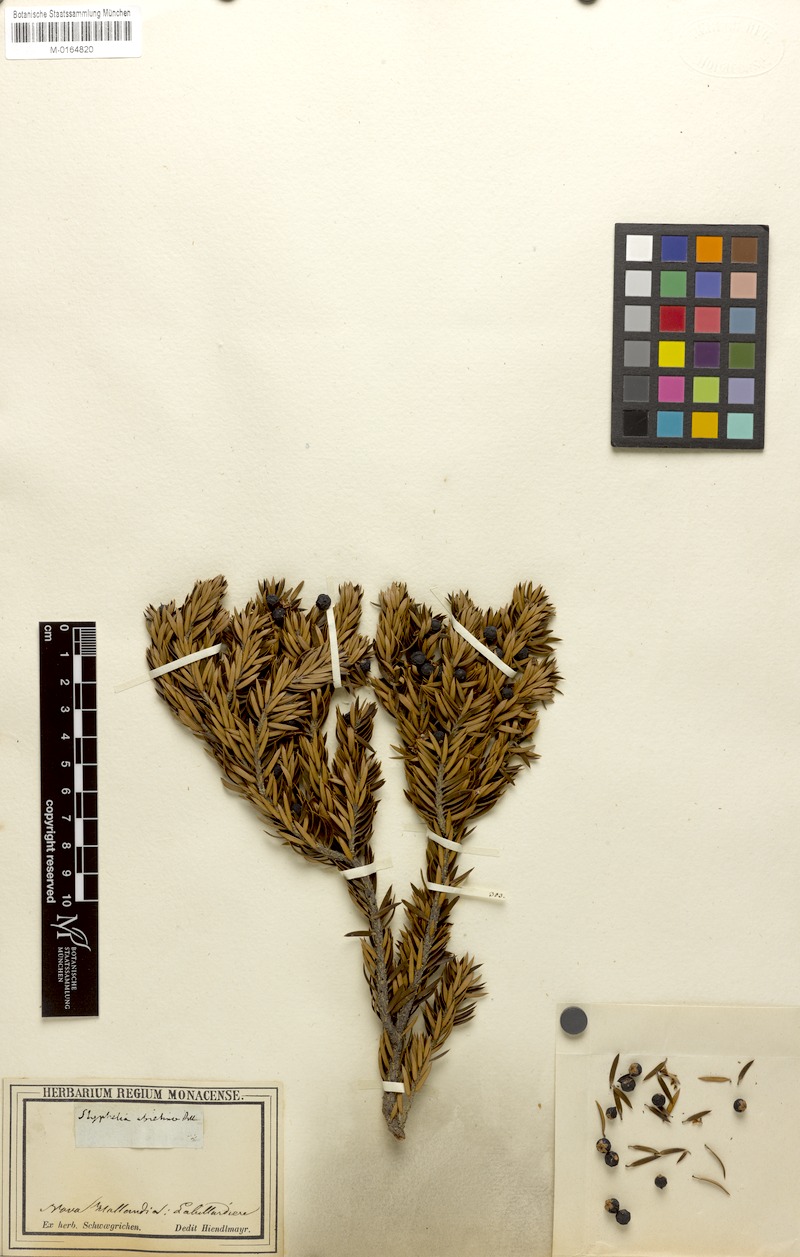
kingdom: Plantae
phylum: Tracheophyta
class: Magnoliopsida
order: Ericales
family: Ericaceae
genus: Leptecophylla
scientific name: Leptecophylla abietina
